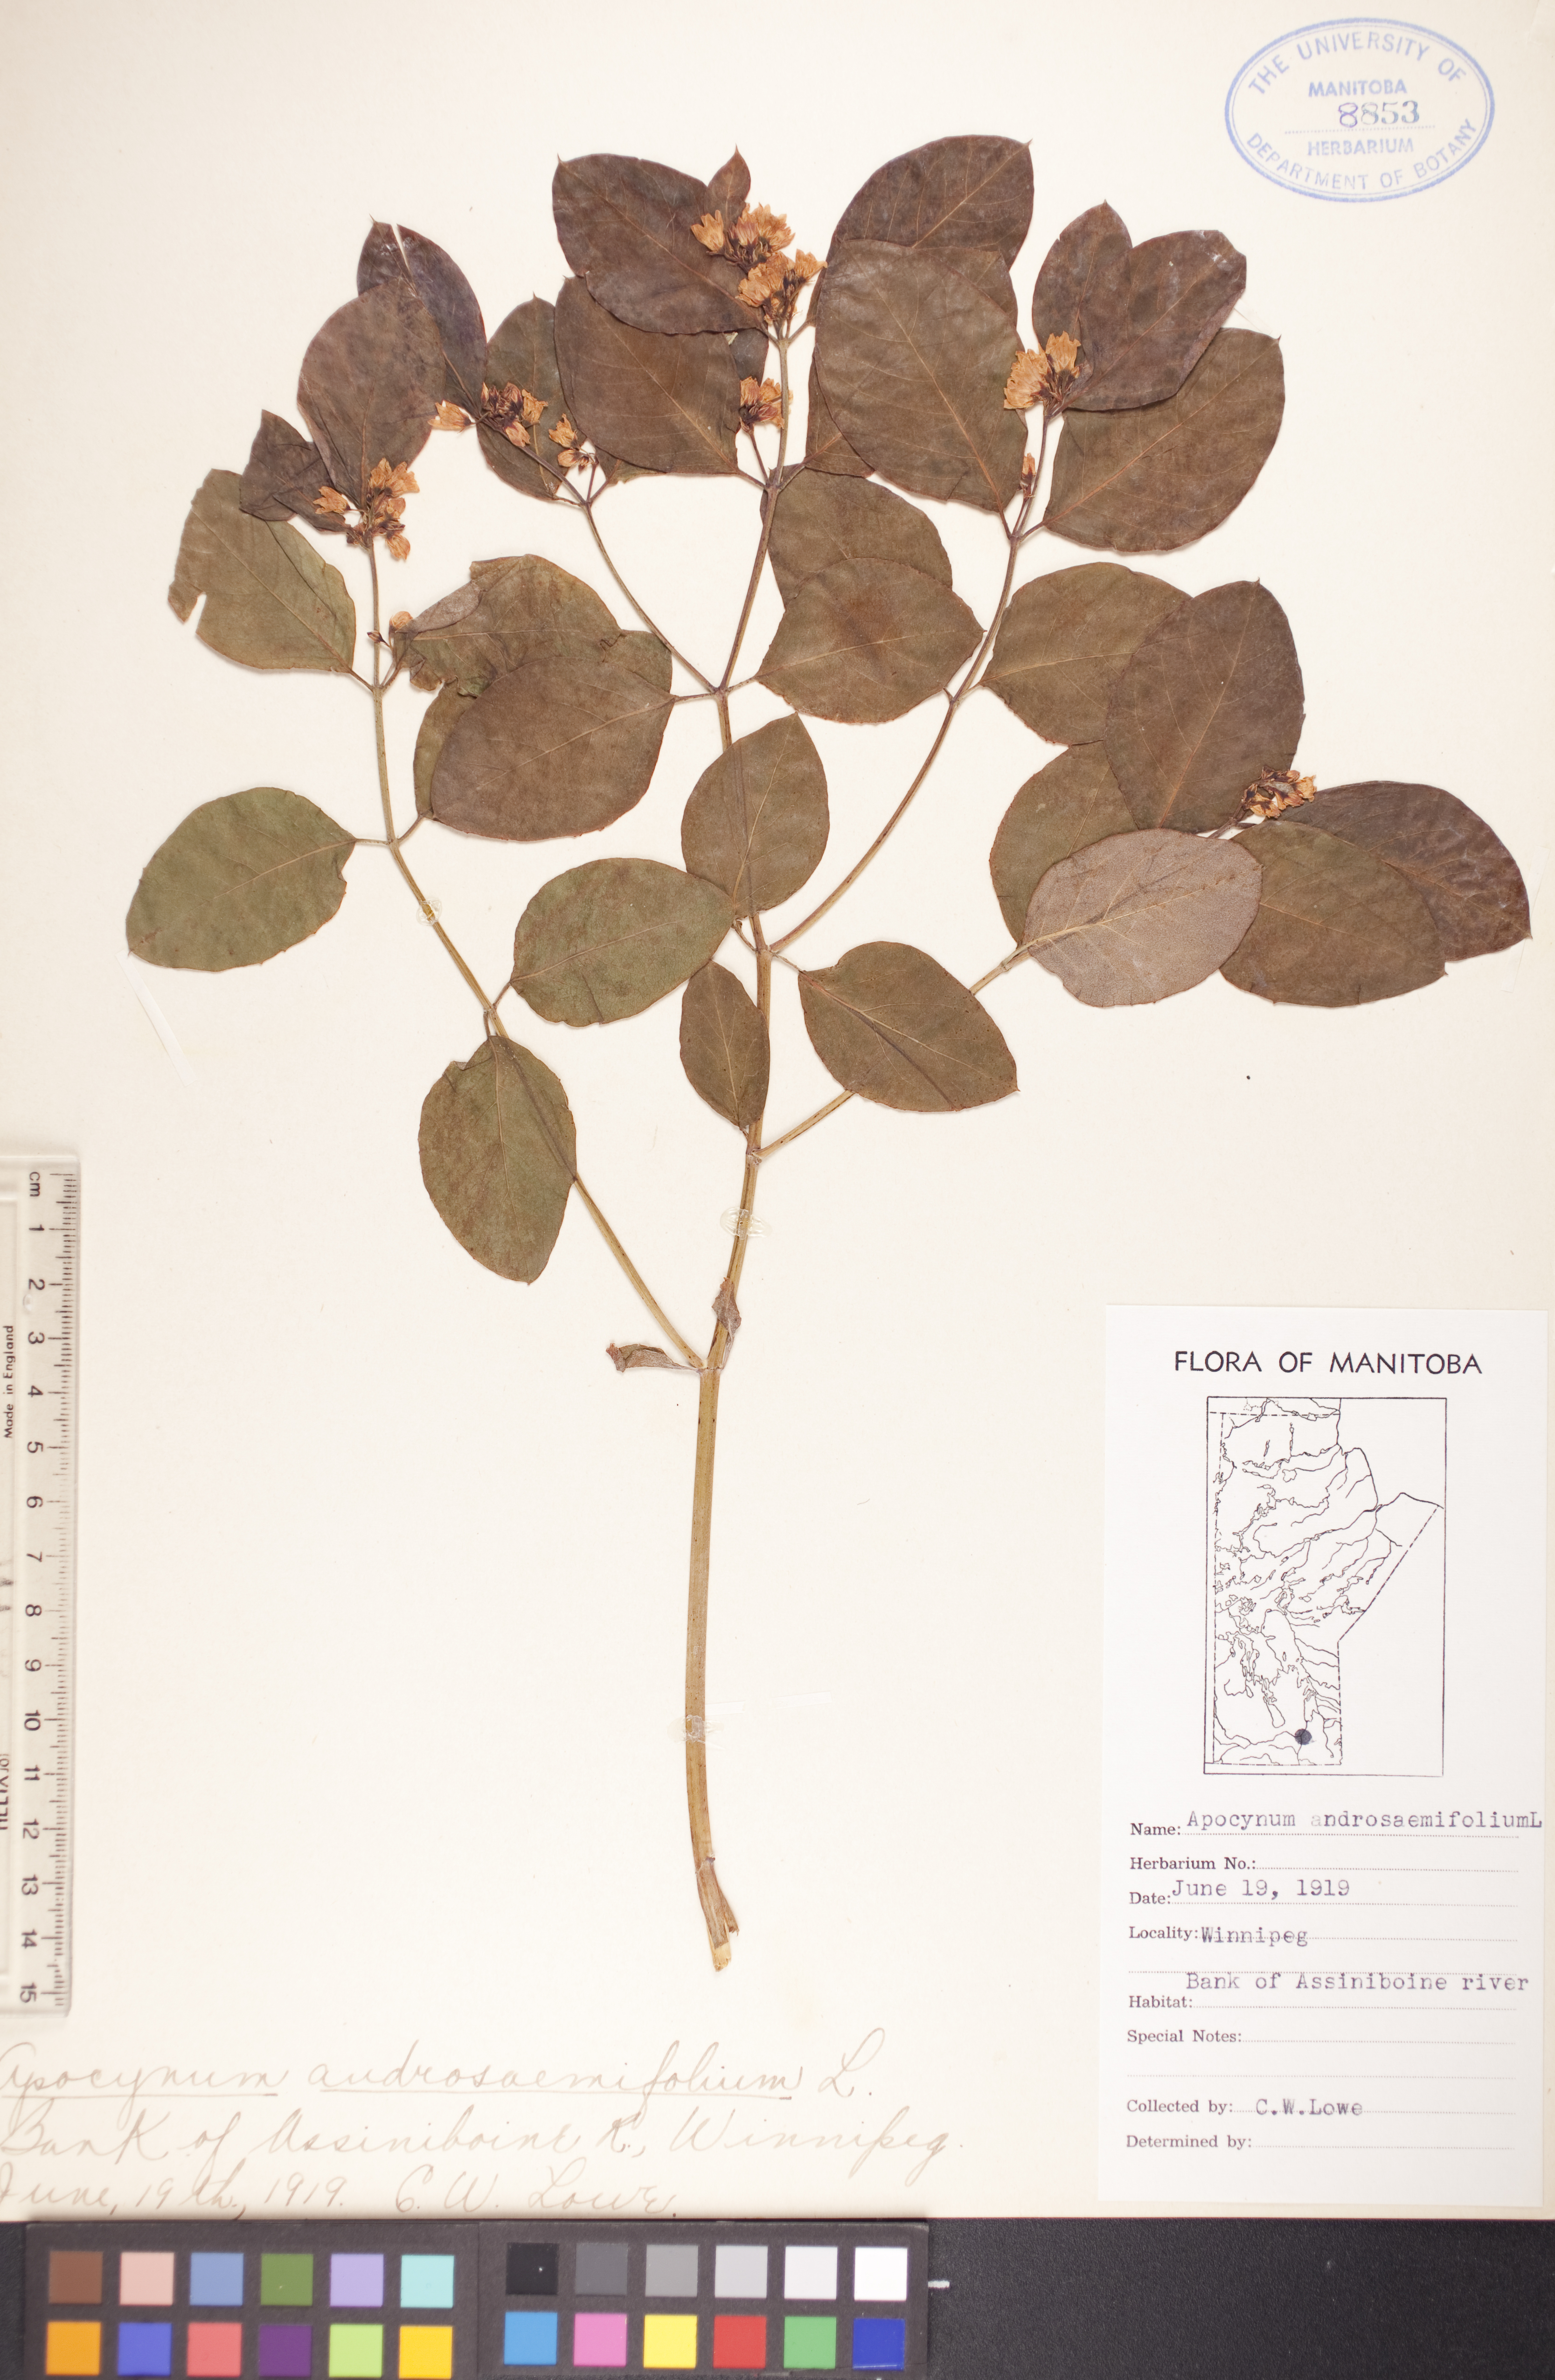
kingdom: Plantae
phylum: Tracheophyta
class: Magnoliopsida
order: Gentianales
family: Apocynaceae
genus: Apocynum
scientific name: Apocynum androsaemifolium
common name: Spreading dogbane
